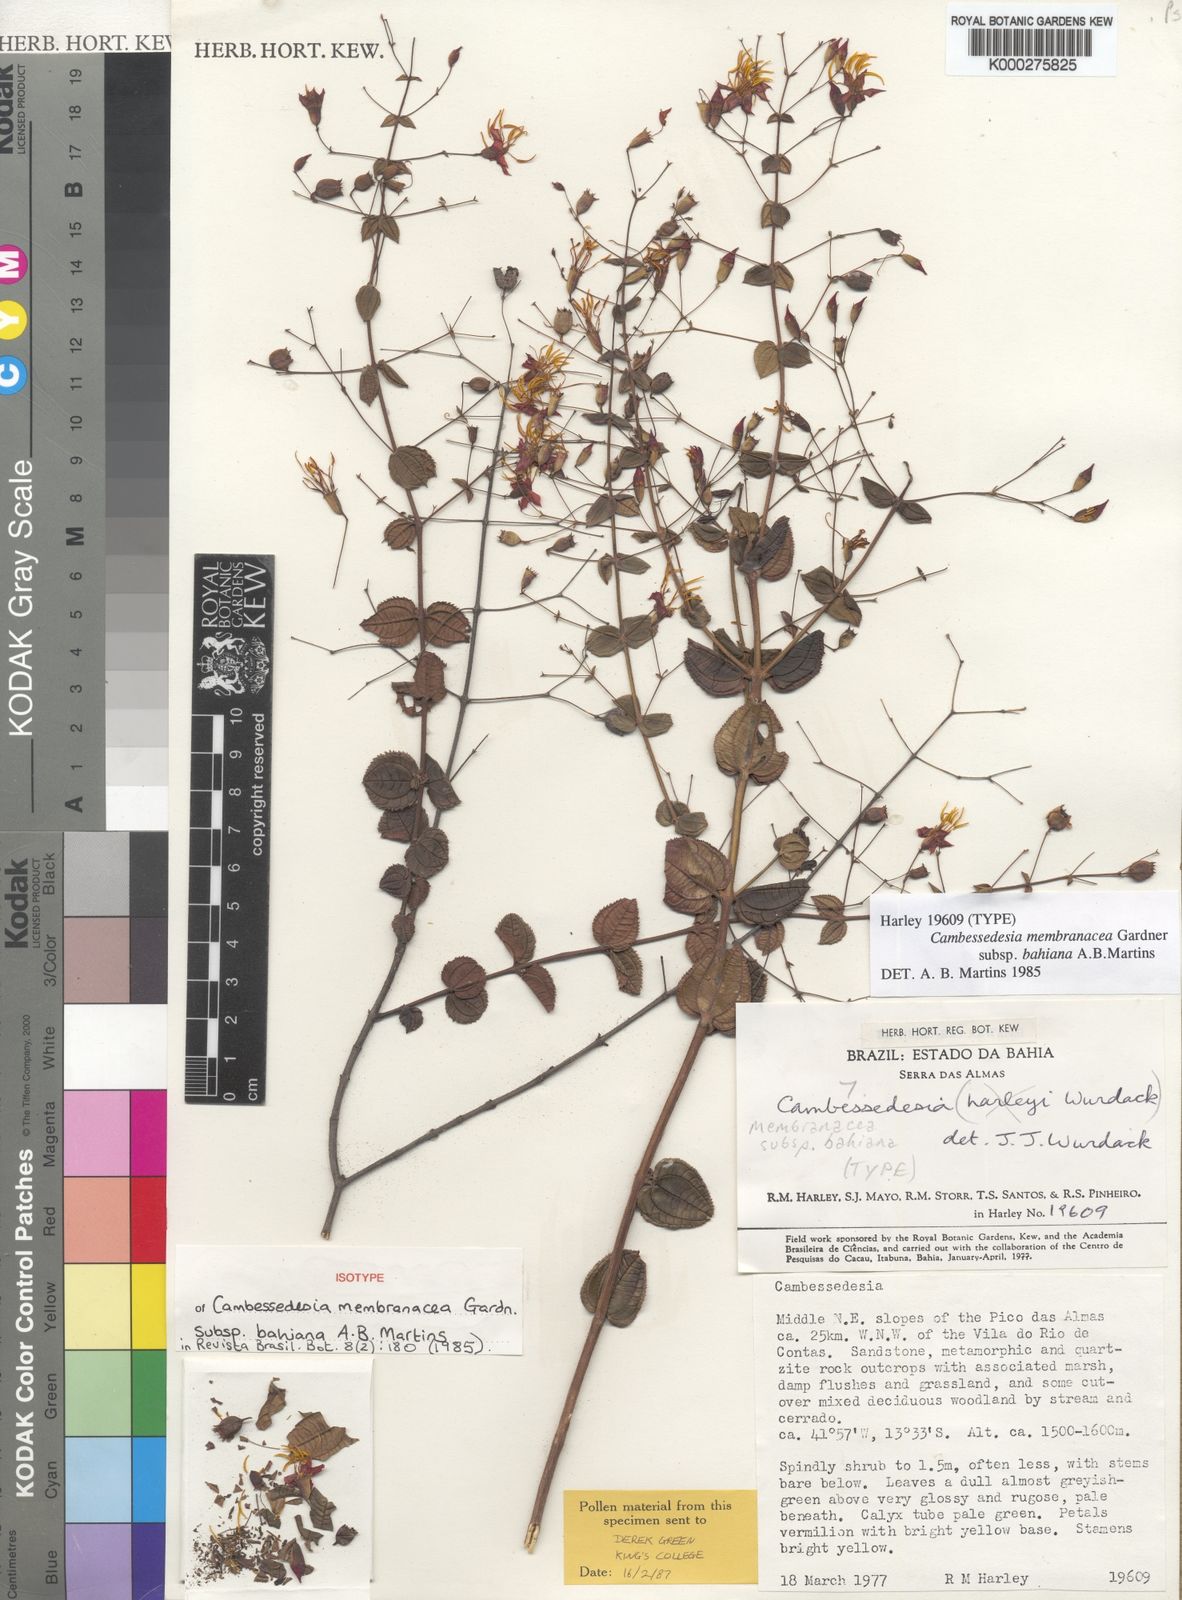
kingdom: Plantae
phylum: Tracheophyta
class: Magnoliopsida
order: Myrtales
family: Melastomataceae
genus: Cambessedesia
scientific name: Cambessedesia membranacea
